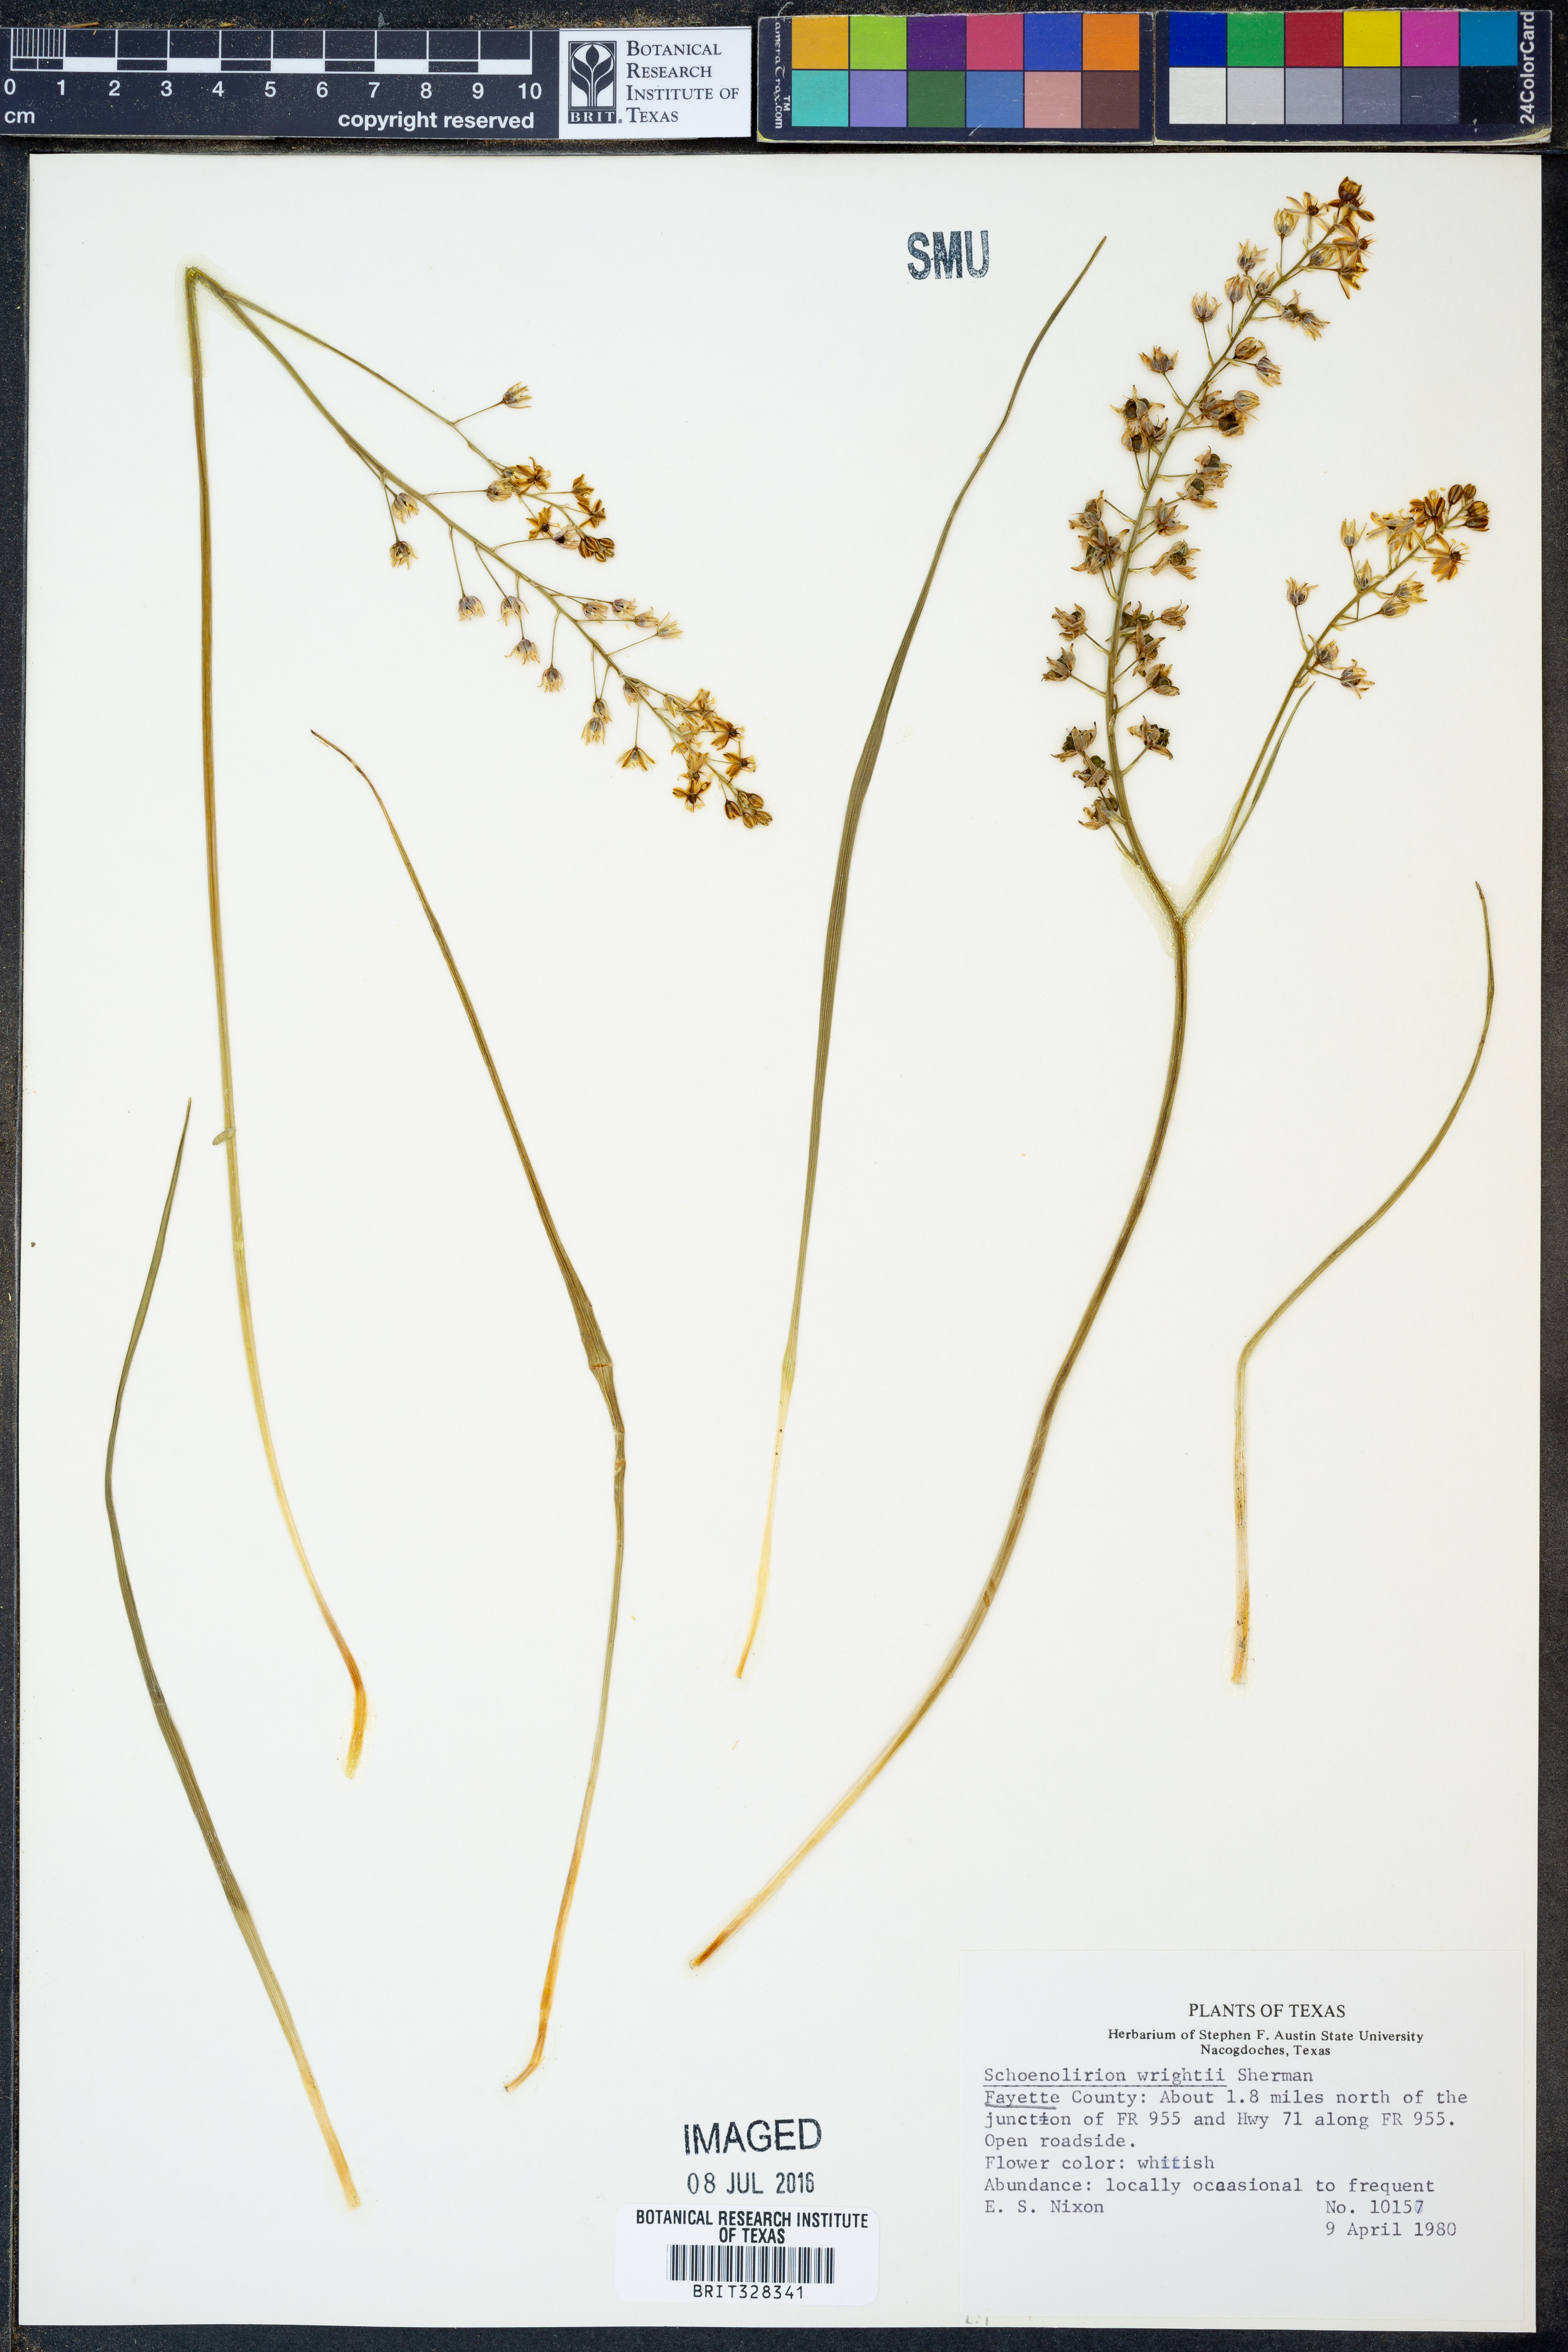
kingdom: Plantae
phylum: Tracheophyta
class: Liliopsida
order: Asparagales
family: Asparagaceae
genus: Schoenolirion
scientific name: Schoenolirion wrightii
